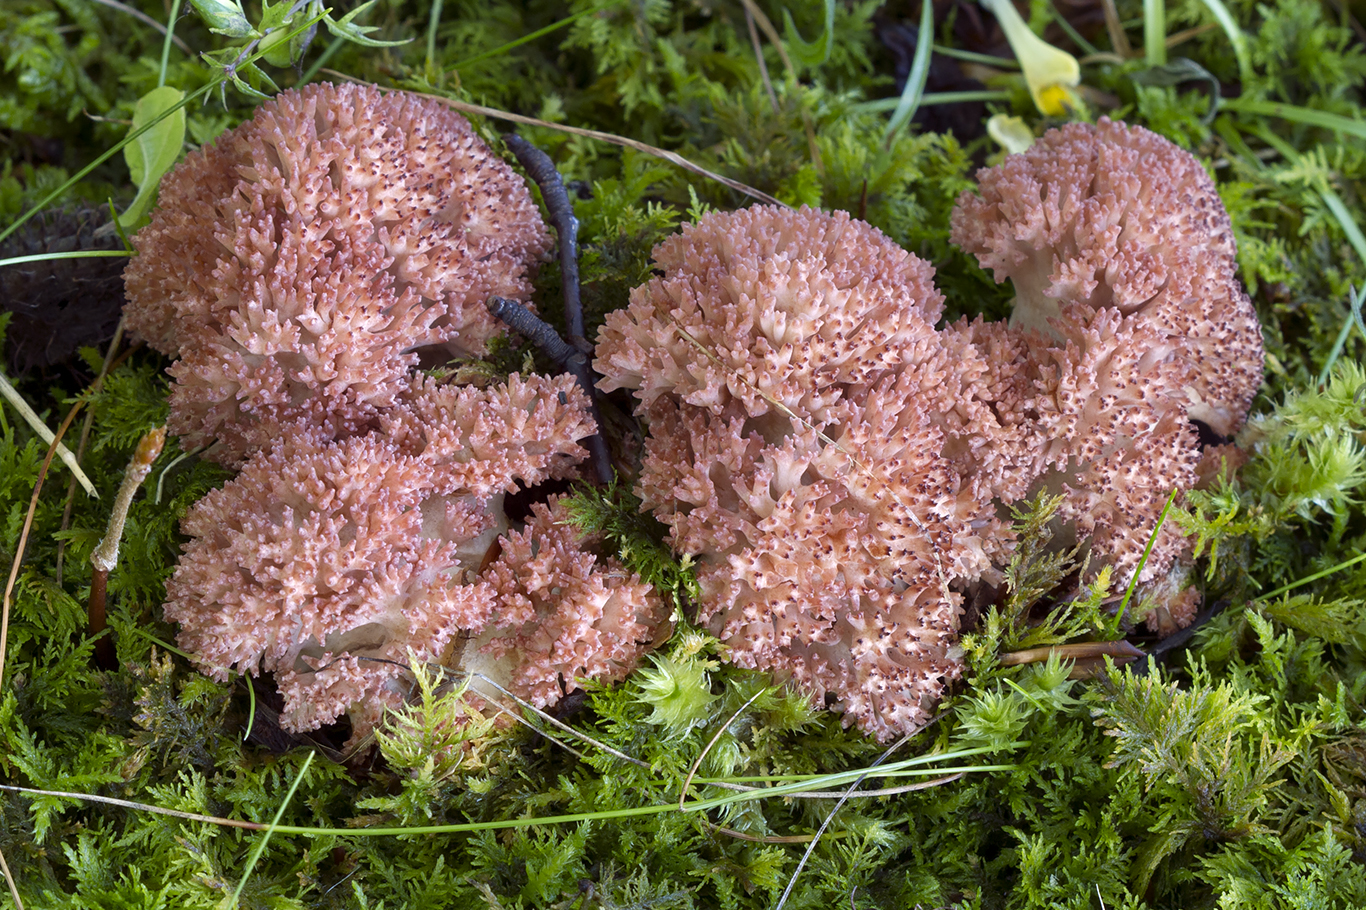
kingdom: Fungi
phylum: Basidiomycota
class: Agaricomycetes
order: Gomphales
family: Gomphaceae
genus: Ramaria
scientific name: Ramaria botrytis
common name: drue-koralsvamp
